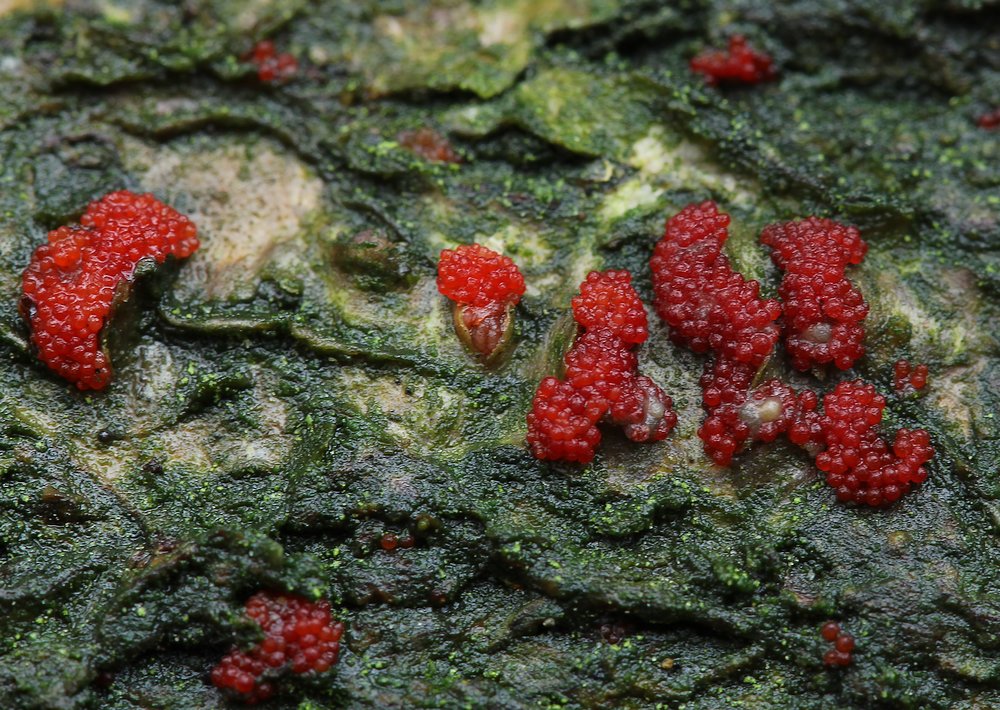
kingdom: Fungi
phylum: Ascomycota
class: Sordariomycetes
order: Hypocreales
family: Nectriaceae
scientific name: Nectriaceae
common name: cinnobersvampfamilien
